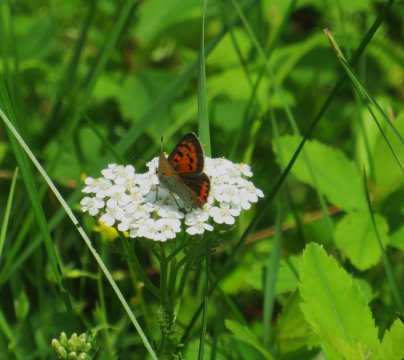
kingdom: Animalia
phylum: Arthropoda
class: Insecta
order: Lepidoptera
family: Lycaenidae
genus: Lycaena
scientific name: Lycaena phlaeas
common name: American Copper
